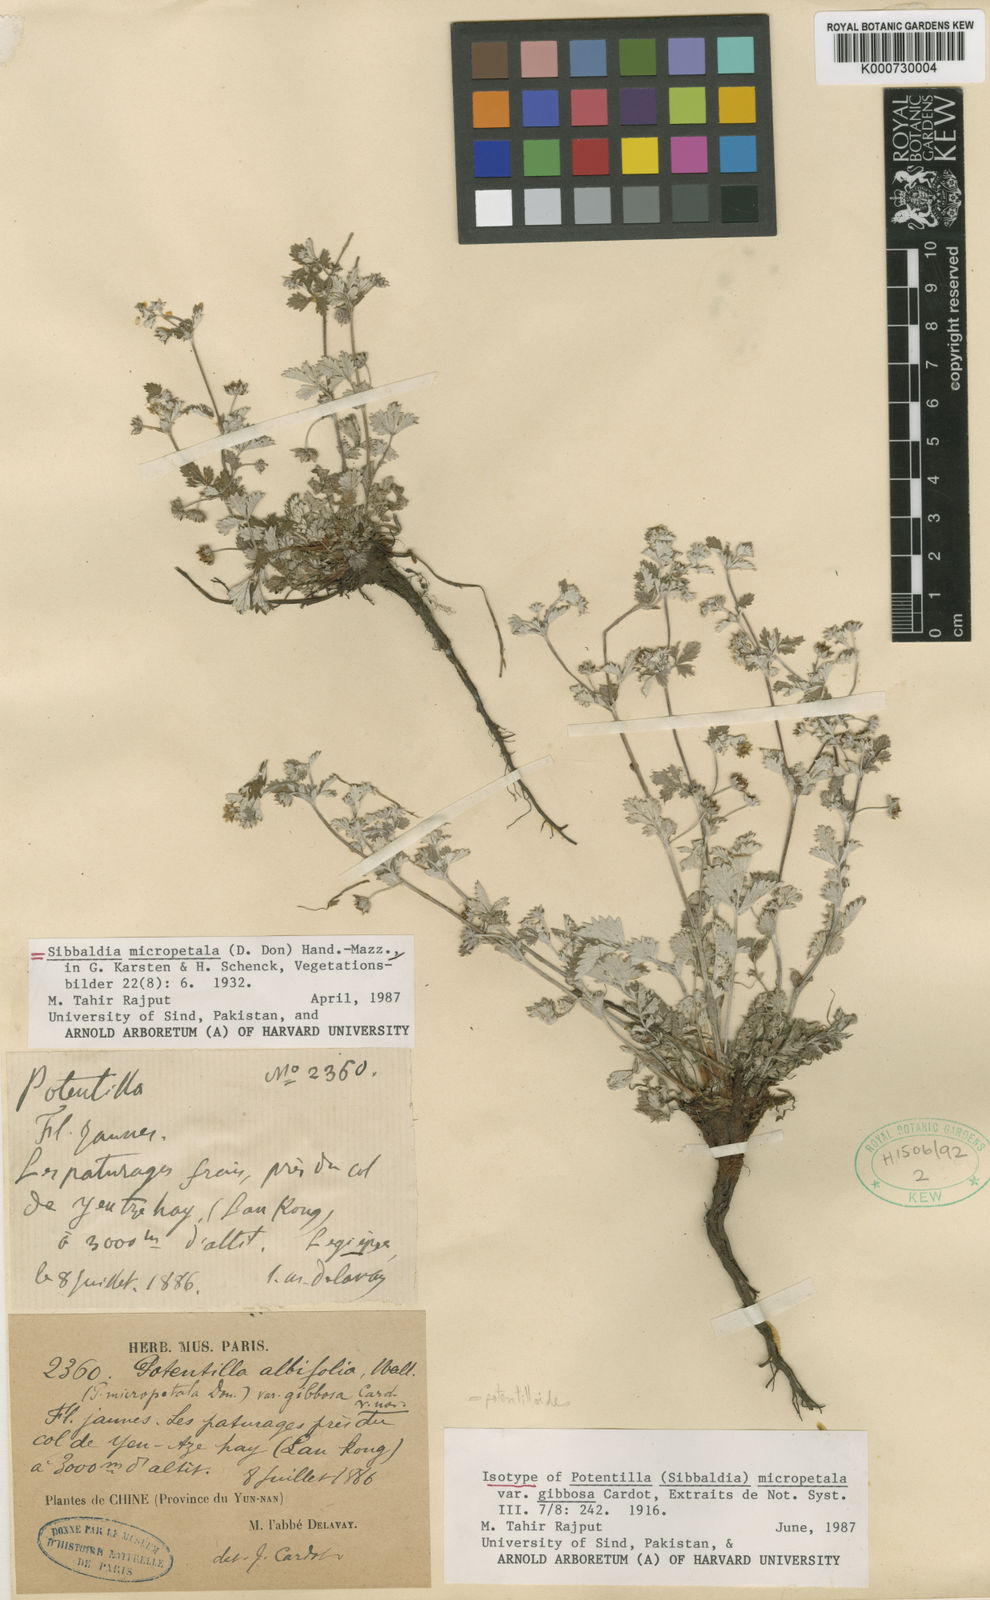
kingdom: Plantae
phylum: Tracheophyta
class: Magnoliopsida
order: Rosales
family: Rosaceae
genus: Argentina
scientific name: Argentina micropetala
